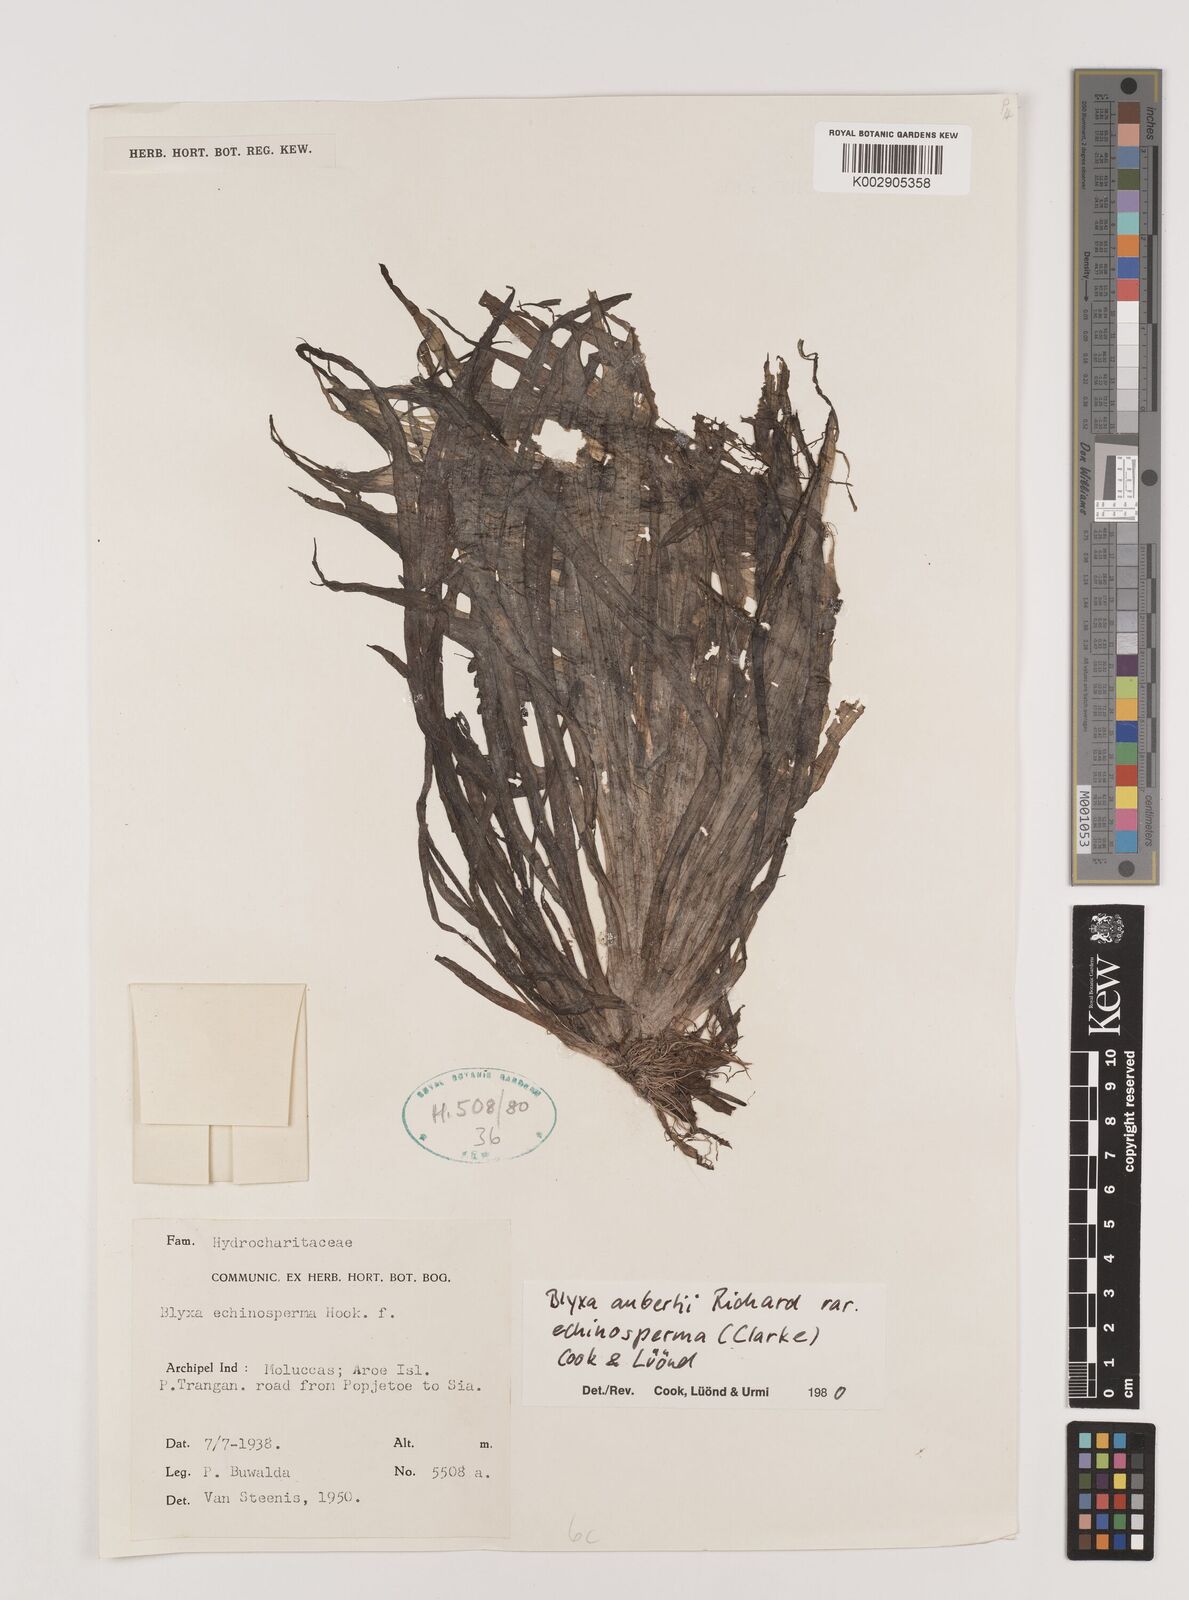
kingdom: Plantae
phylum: Tracheophyta
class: Liliopsida
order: Alismatales
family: Hydrocharitaceae
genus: Blyxa
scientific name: Blyxa echinosperma
